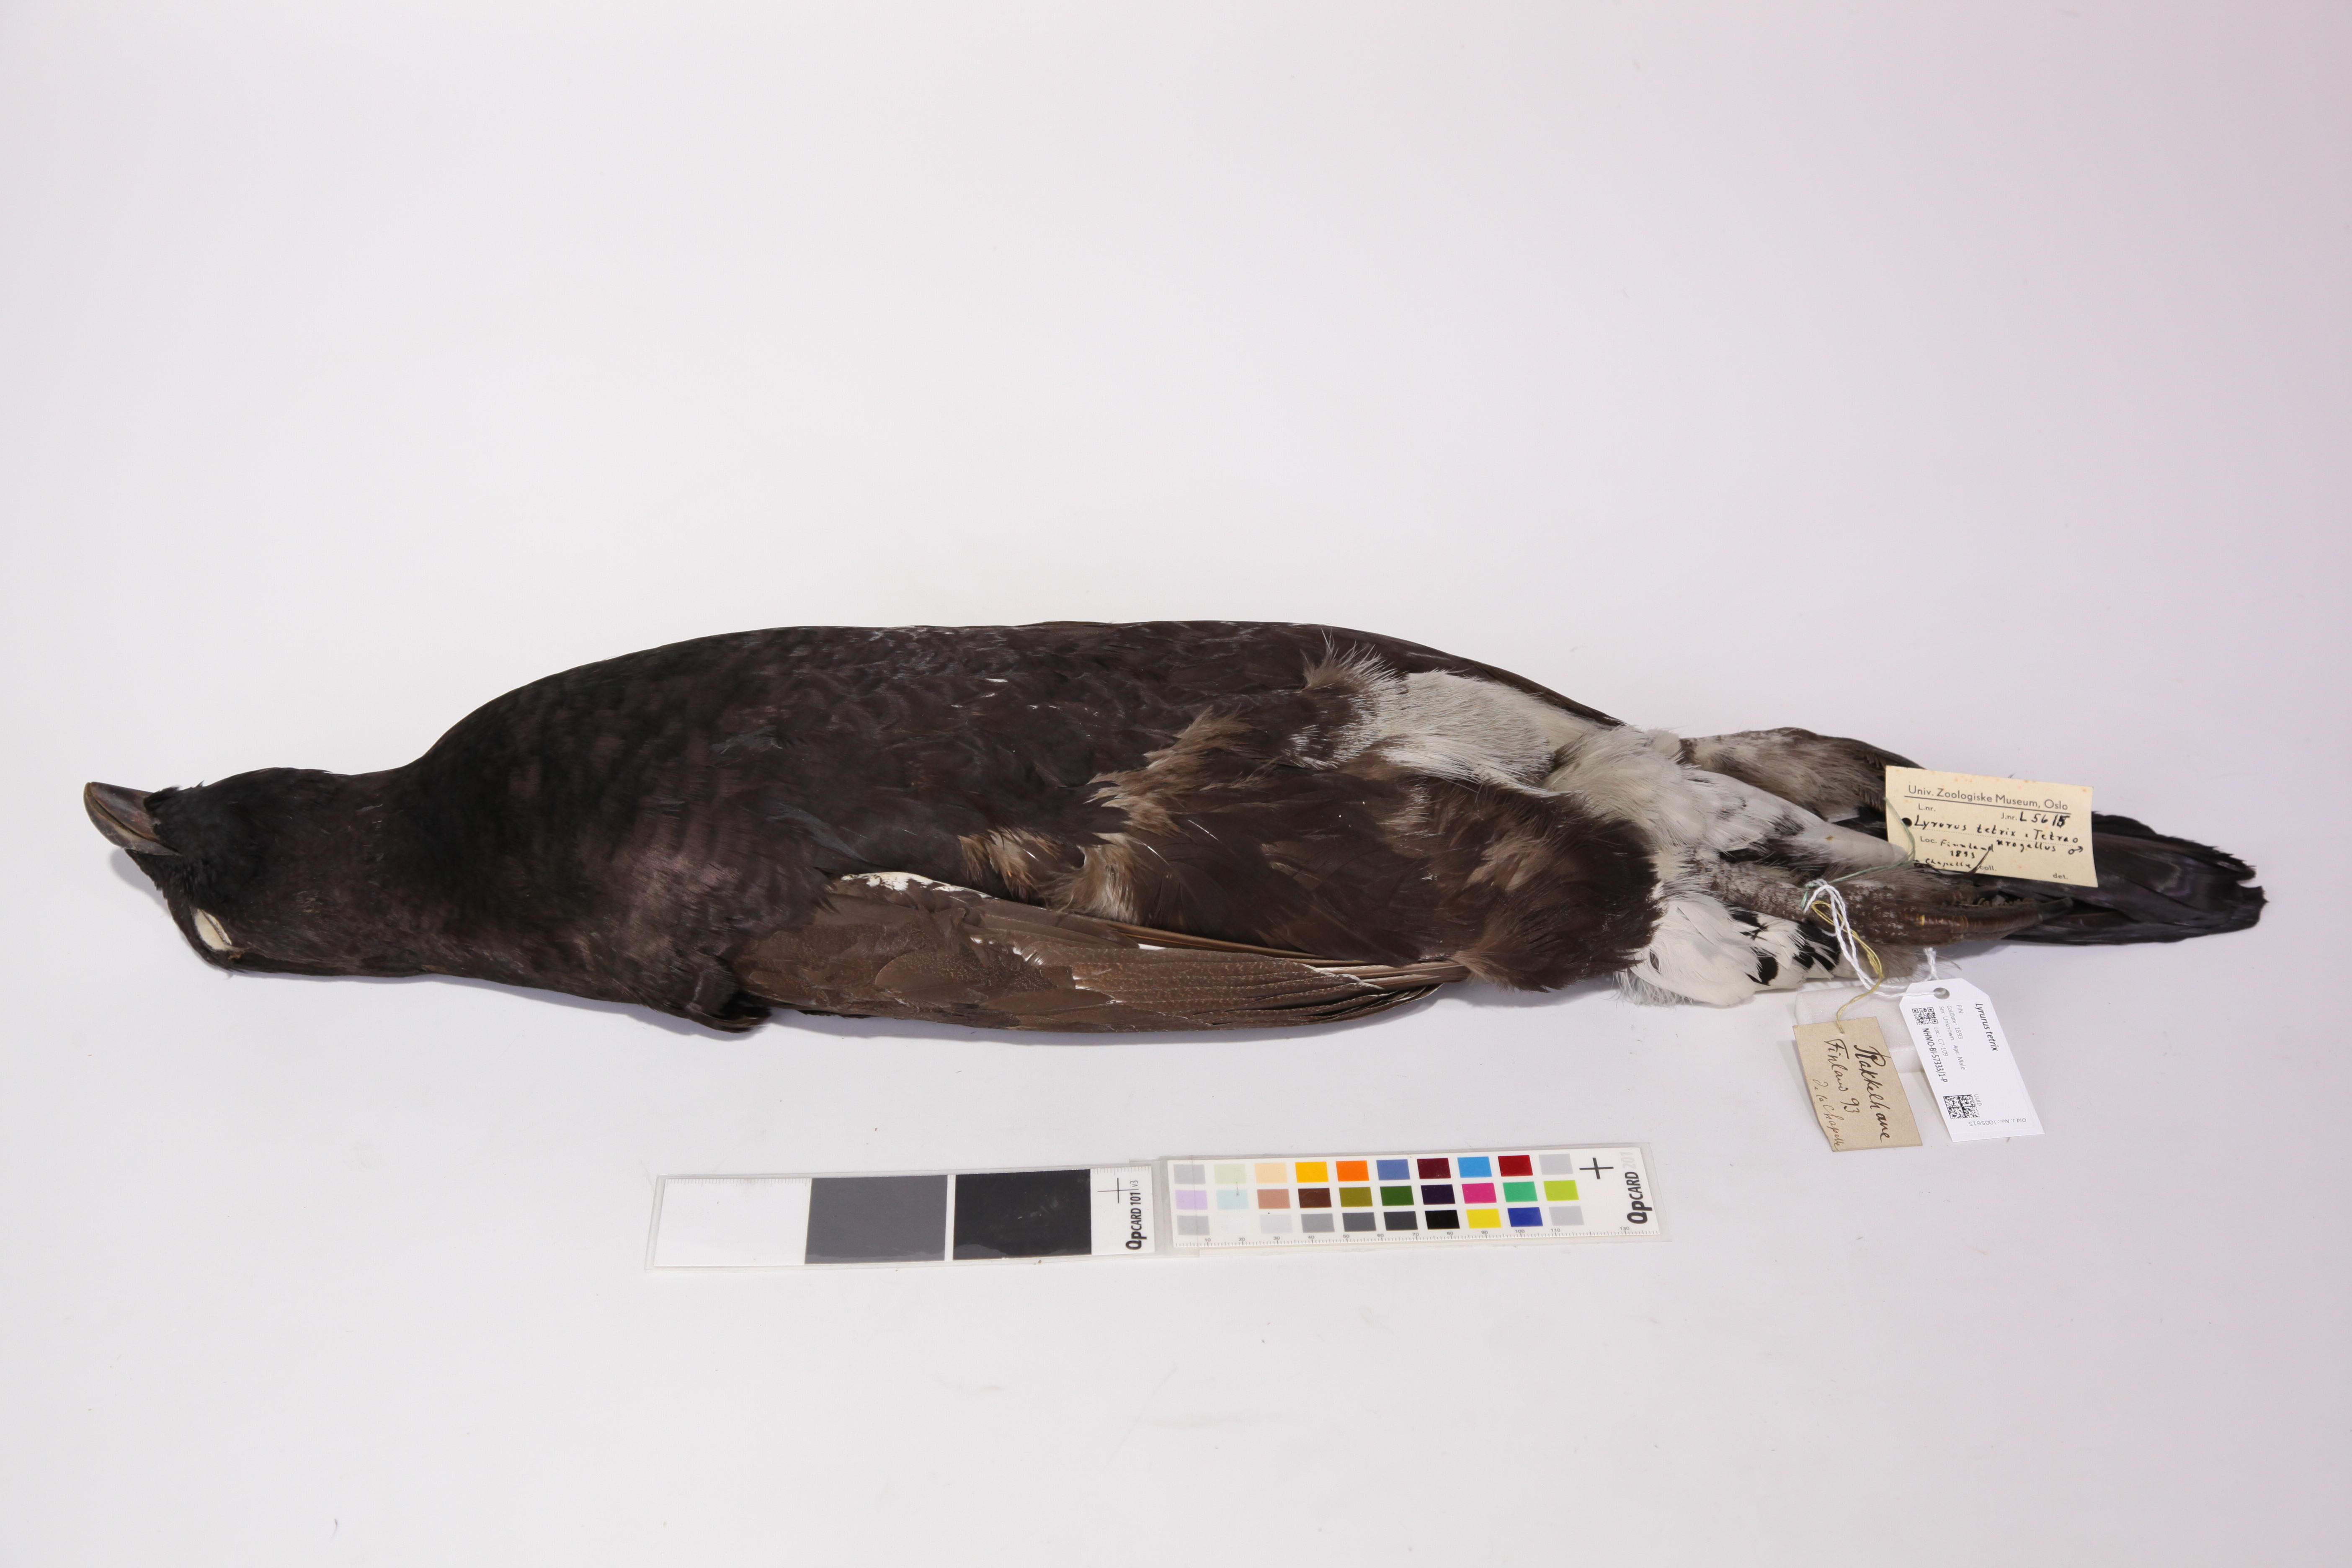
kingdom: Animalia
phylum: Chordata
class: Aves
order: Galliformes
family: Phasianidae
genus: Lyrurus
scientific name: Lyrurus
